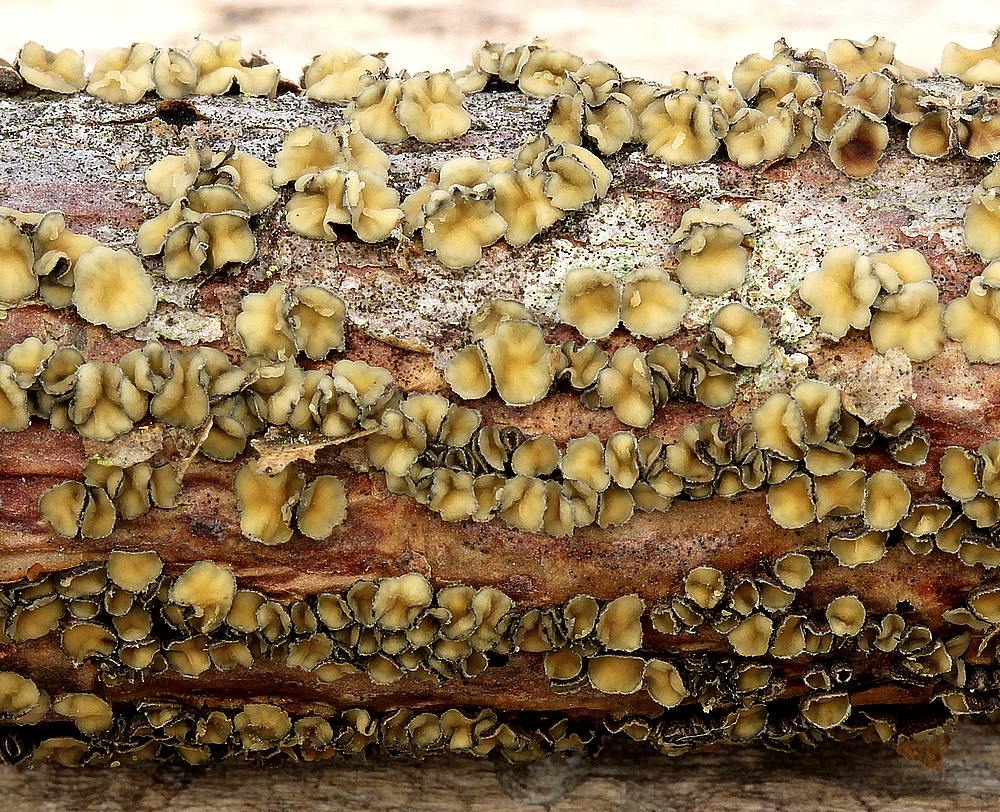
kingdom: Fungi
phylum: Ascomycota
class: Leotiomycetes
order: Helotiales
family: Cenangiaceae
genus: Cenangium
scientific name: Cenangium ferruginosum
